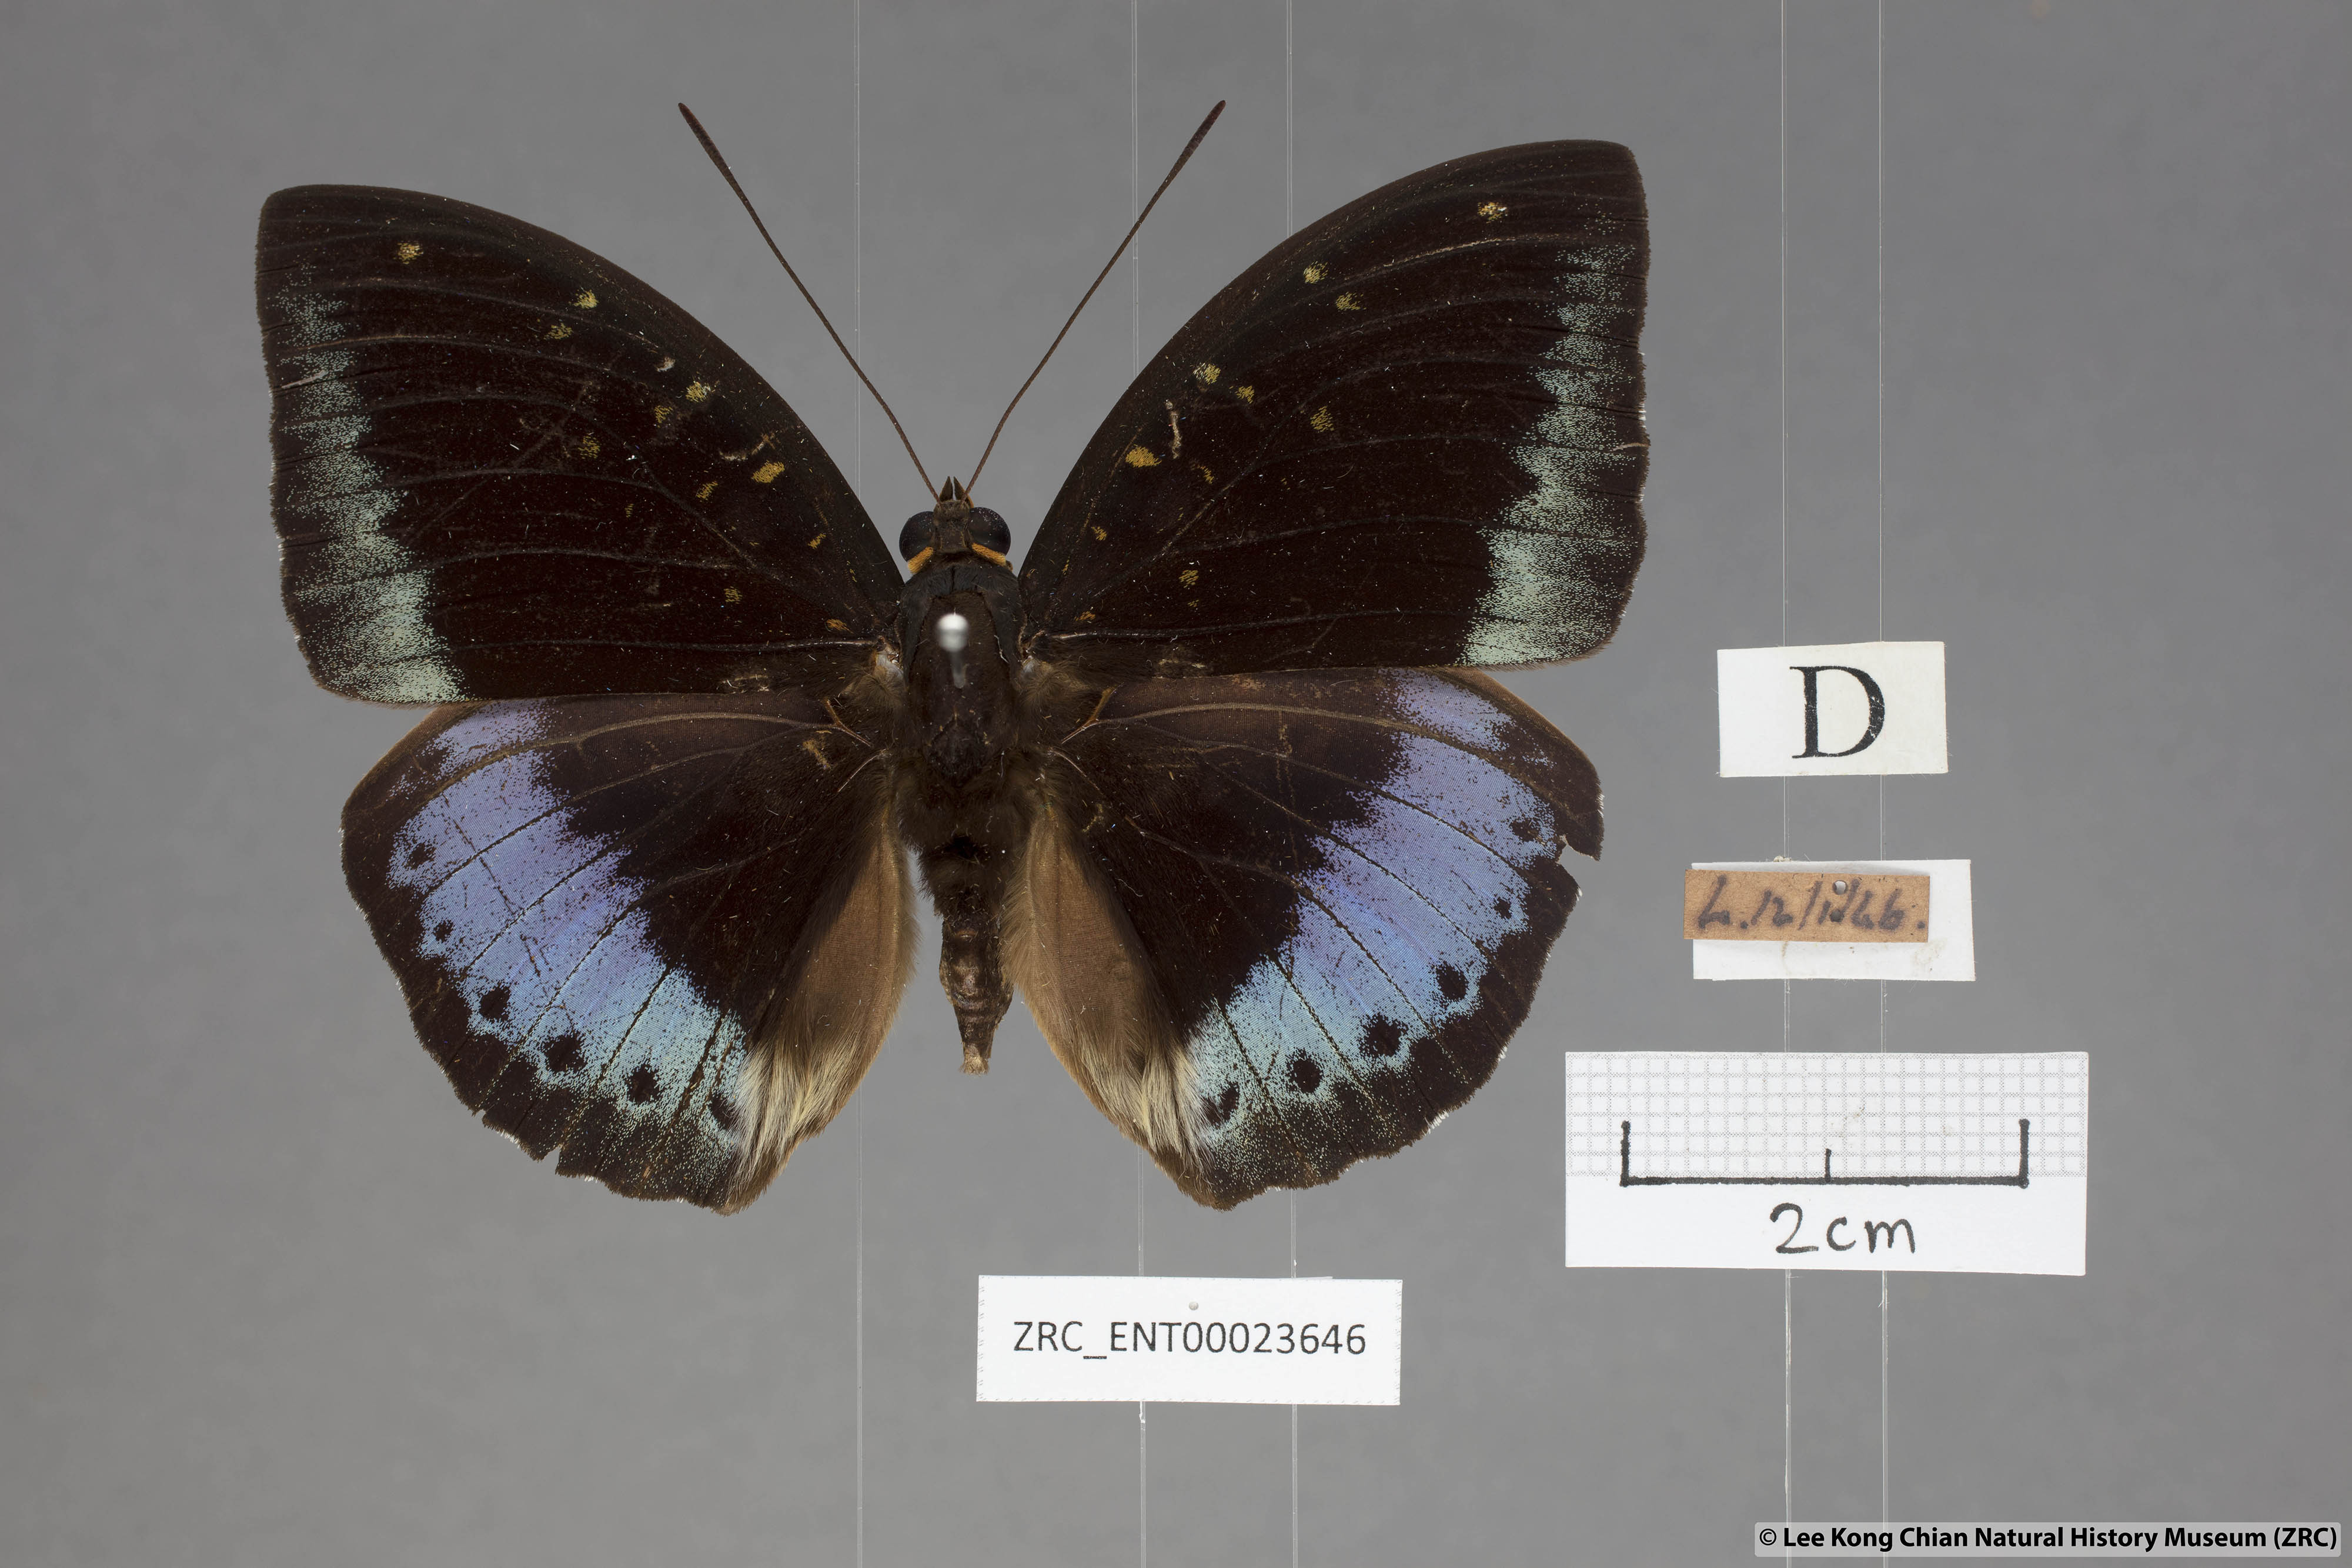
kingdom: Animalia
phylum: Arthropoda
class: Insecta
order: Lepidoptera
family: Nymphalidae
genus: Lexias
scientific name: Lexias pardalis
